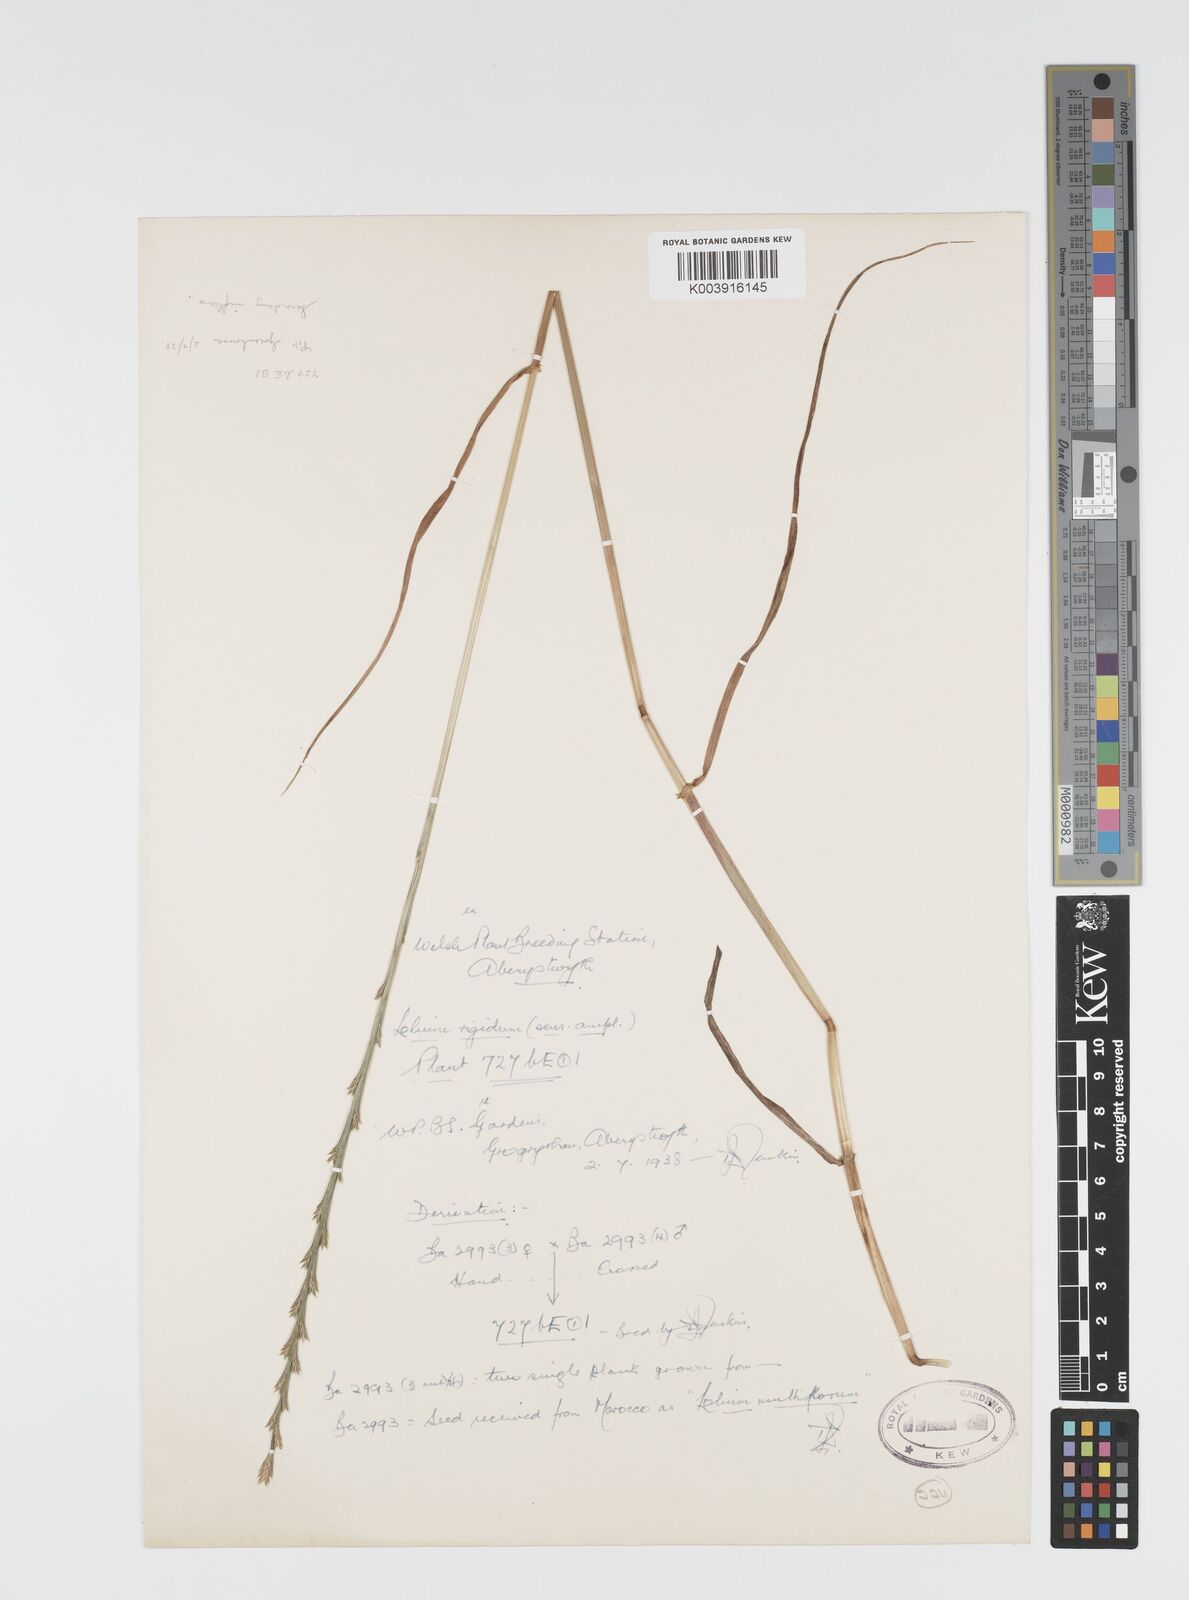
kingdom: Plantae
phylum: Tracheophyta
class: Liliopsida
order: Poales
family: Poaceae
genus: Lolium
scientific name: Lolium rigidum
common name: Wimmera ryegrass
